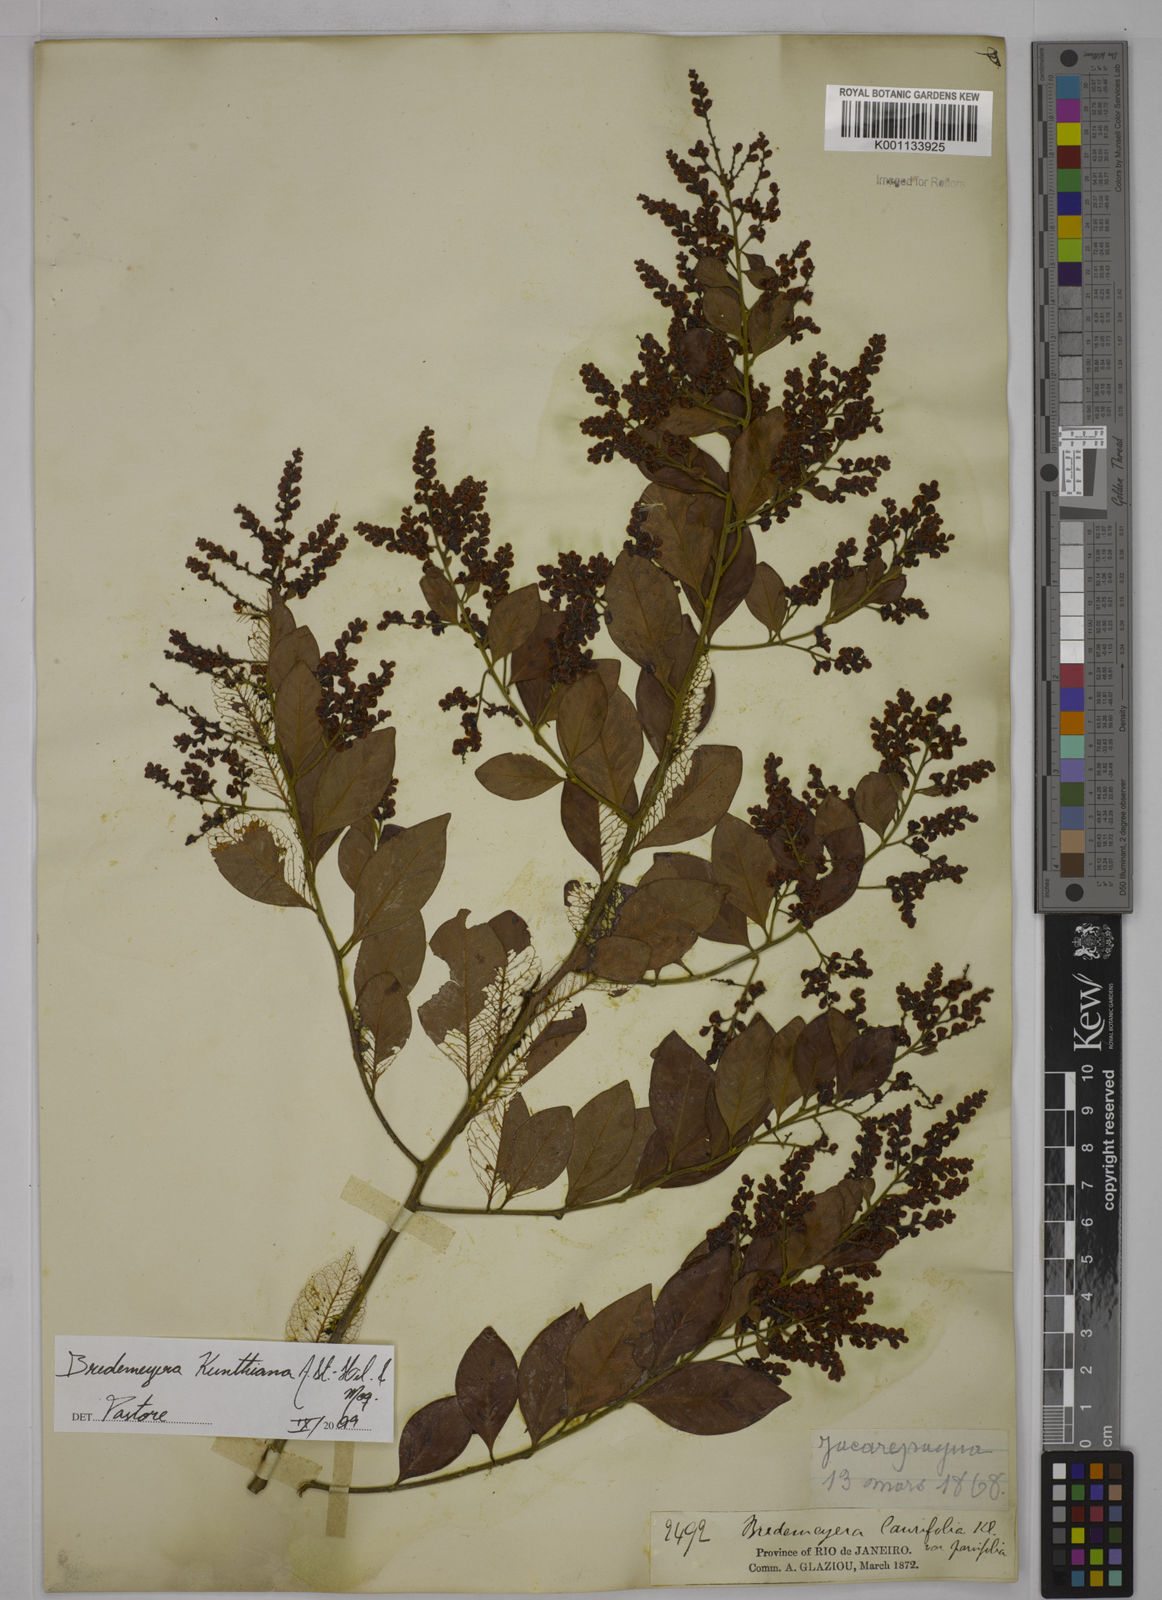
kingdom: Plantae
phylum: Tracheophyta
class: Magnoliopsida
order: Fabales
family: Polygalaceae
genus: Bredemeyera
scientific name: Bredemeyera hebeclada
